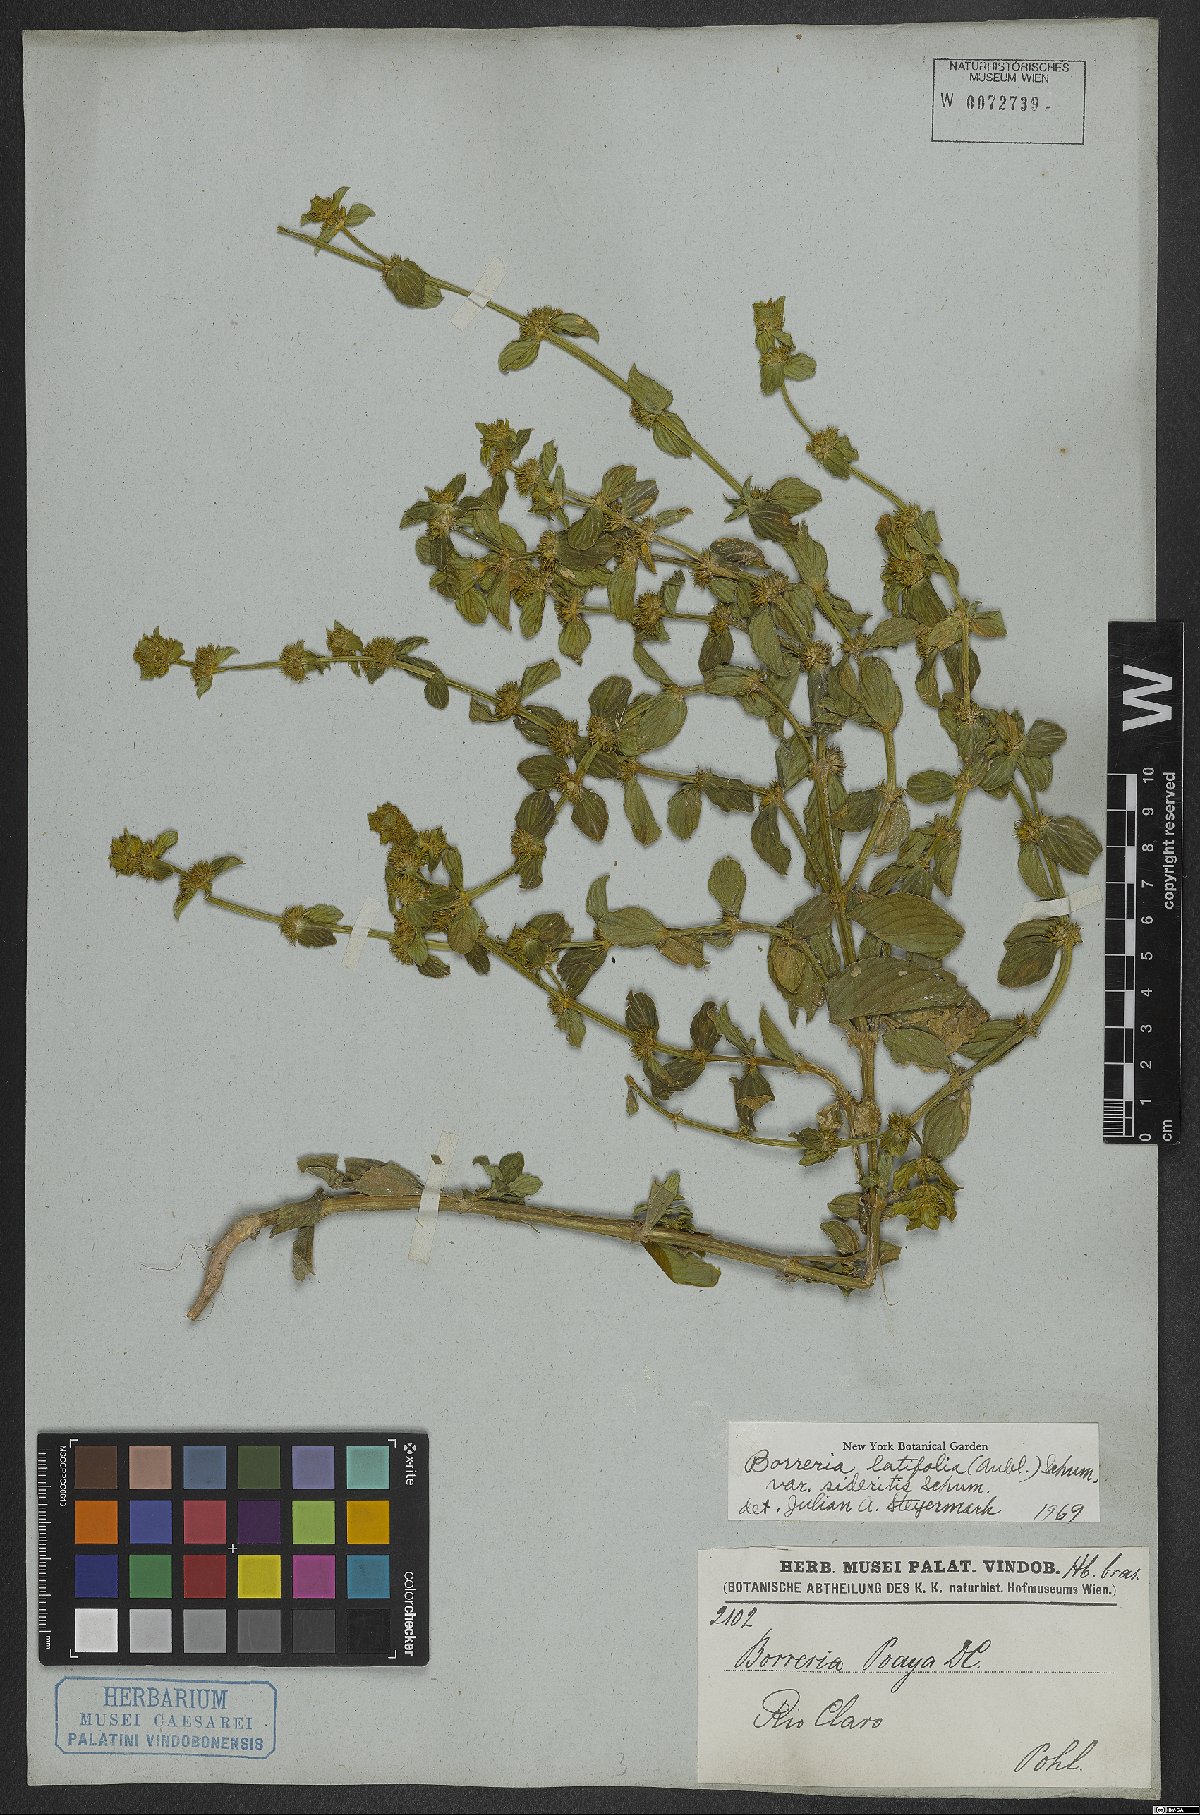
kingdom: Plantae
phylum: Tracheophyta
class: Magnoliopsida
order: Gentianales
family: Rubiaceae
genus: Spermacoce
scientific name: Spermacoce latifolia
